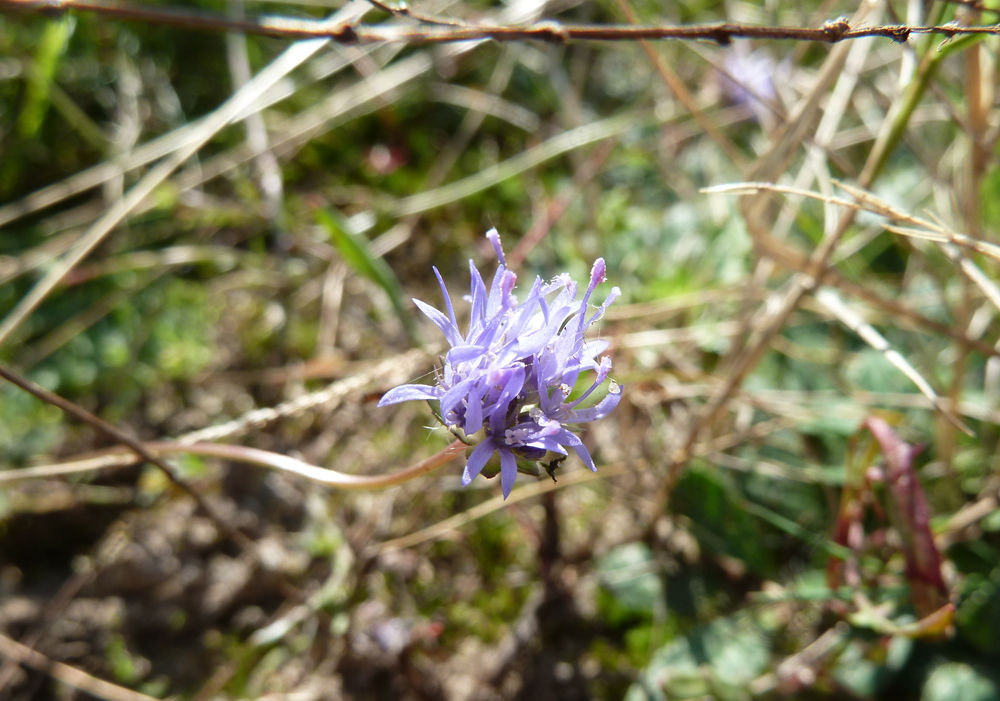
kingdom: Plantae
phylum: Tracheophyta
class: Magnoliopsida
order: Asterales
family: Campanulaceae
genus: Jasione
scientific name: Jasione montana
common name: Sheep's-bit
